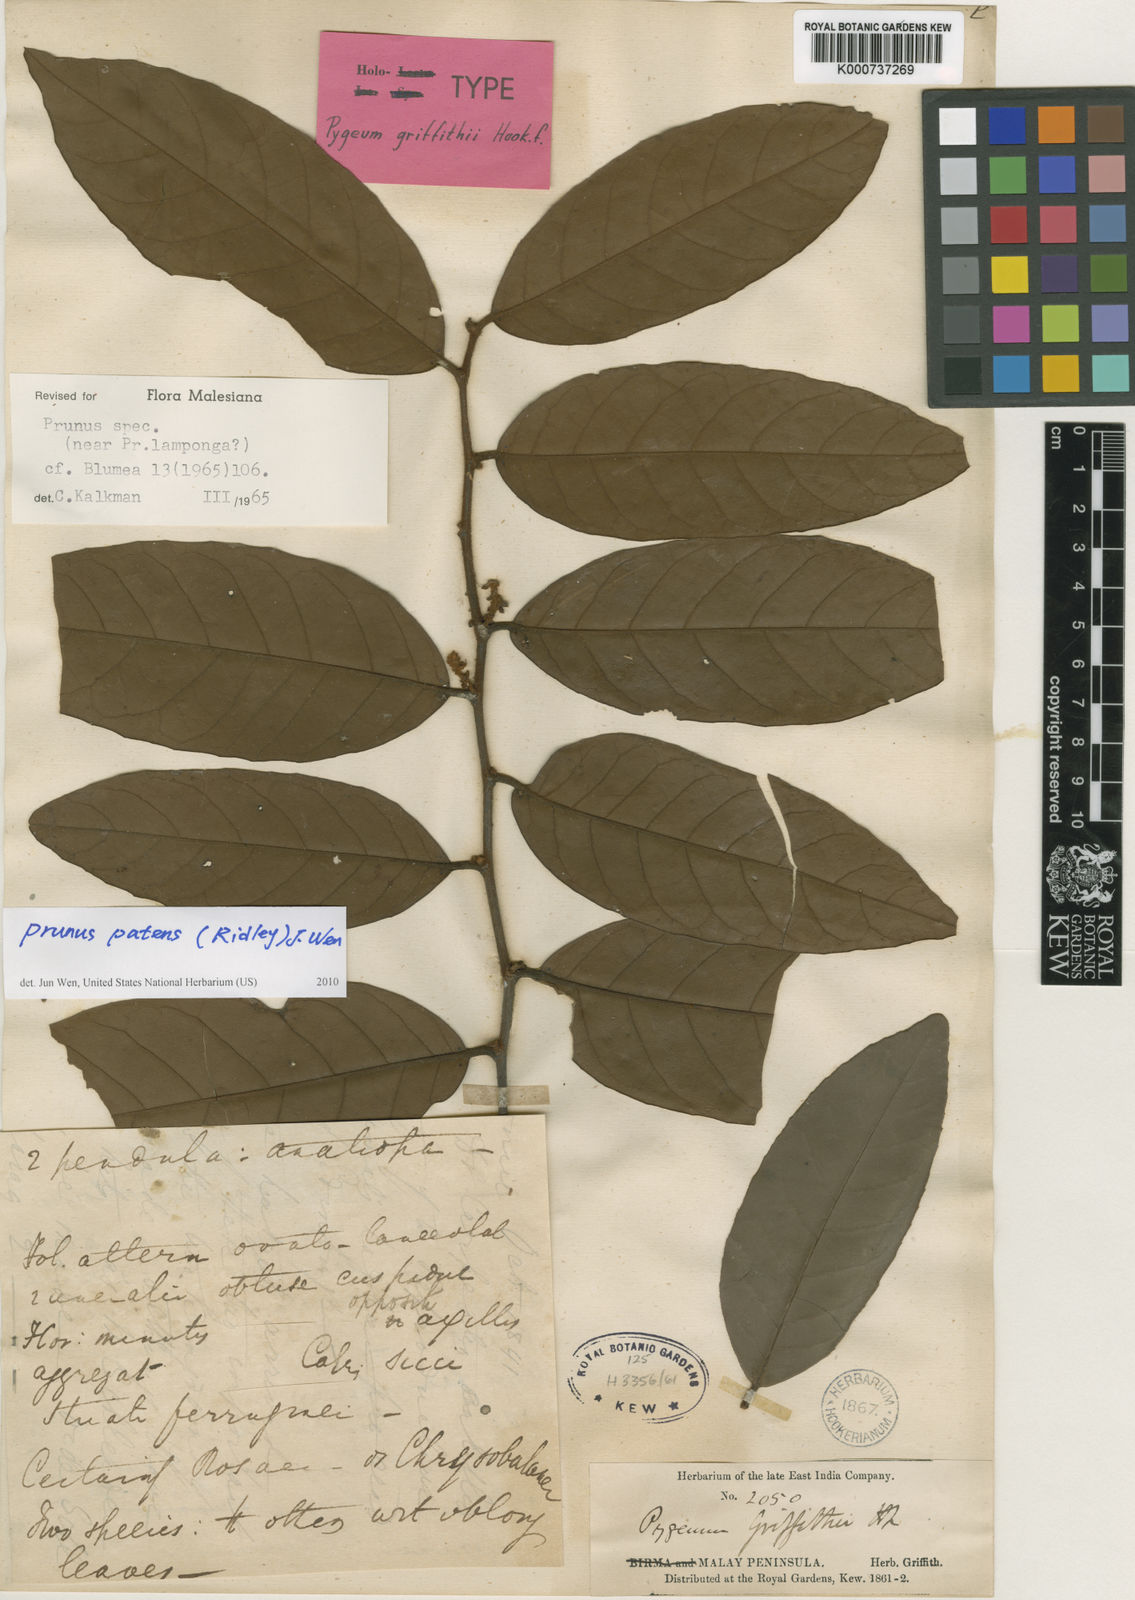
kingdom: Plantae
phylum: Tracheophyta
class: Magnoliopsida
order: Rosales
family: Rosaceae
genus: Prunus
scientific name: Prunus
